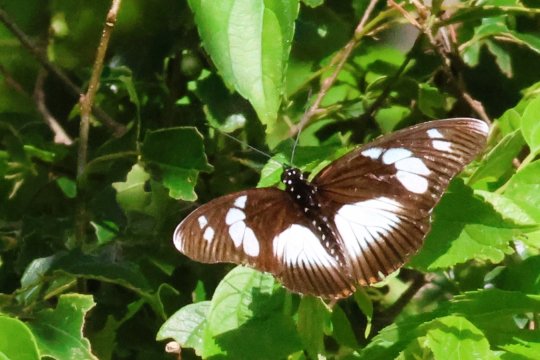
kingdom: Animalia
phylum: Arthropoda
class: Insecta
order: Lepidoptera
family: Nymphalidae
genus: Chloropoea
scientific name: Chloropoea lucretia
